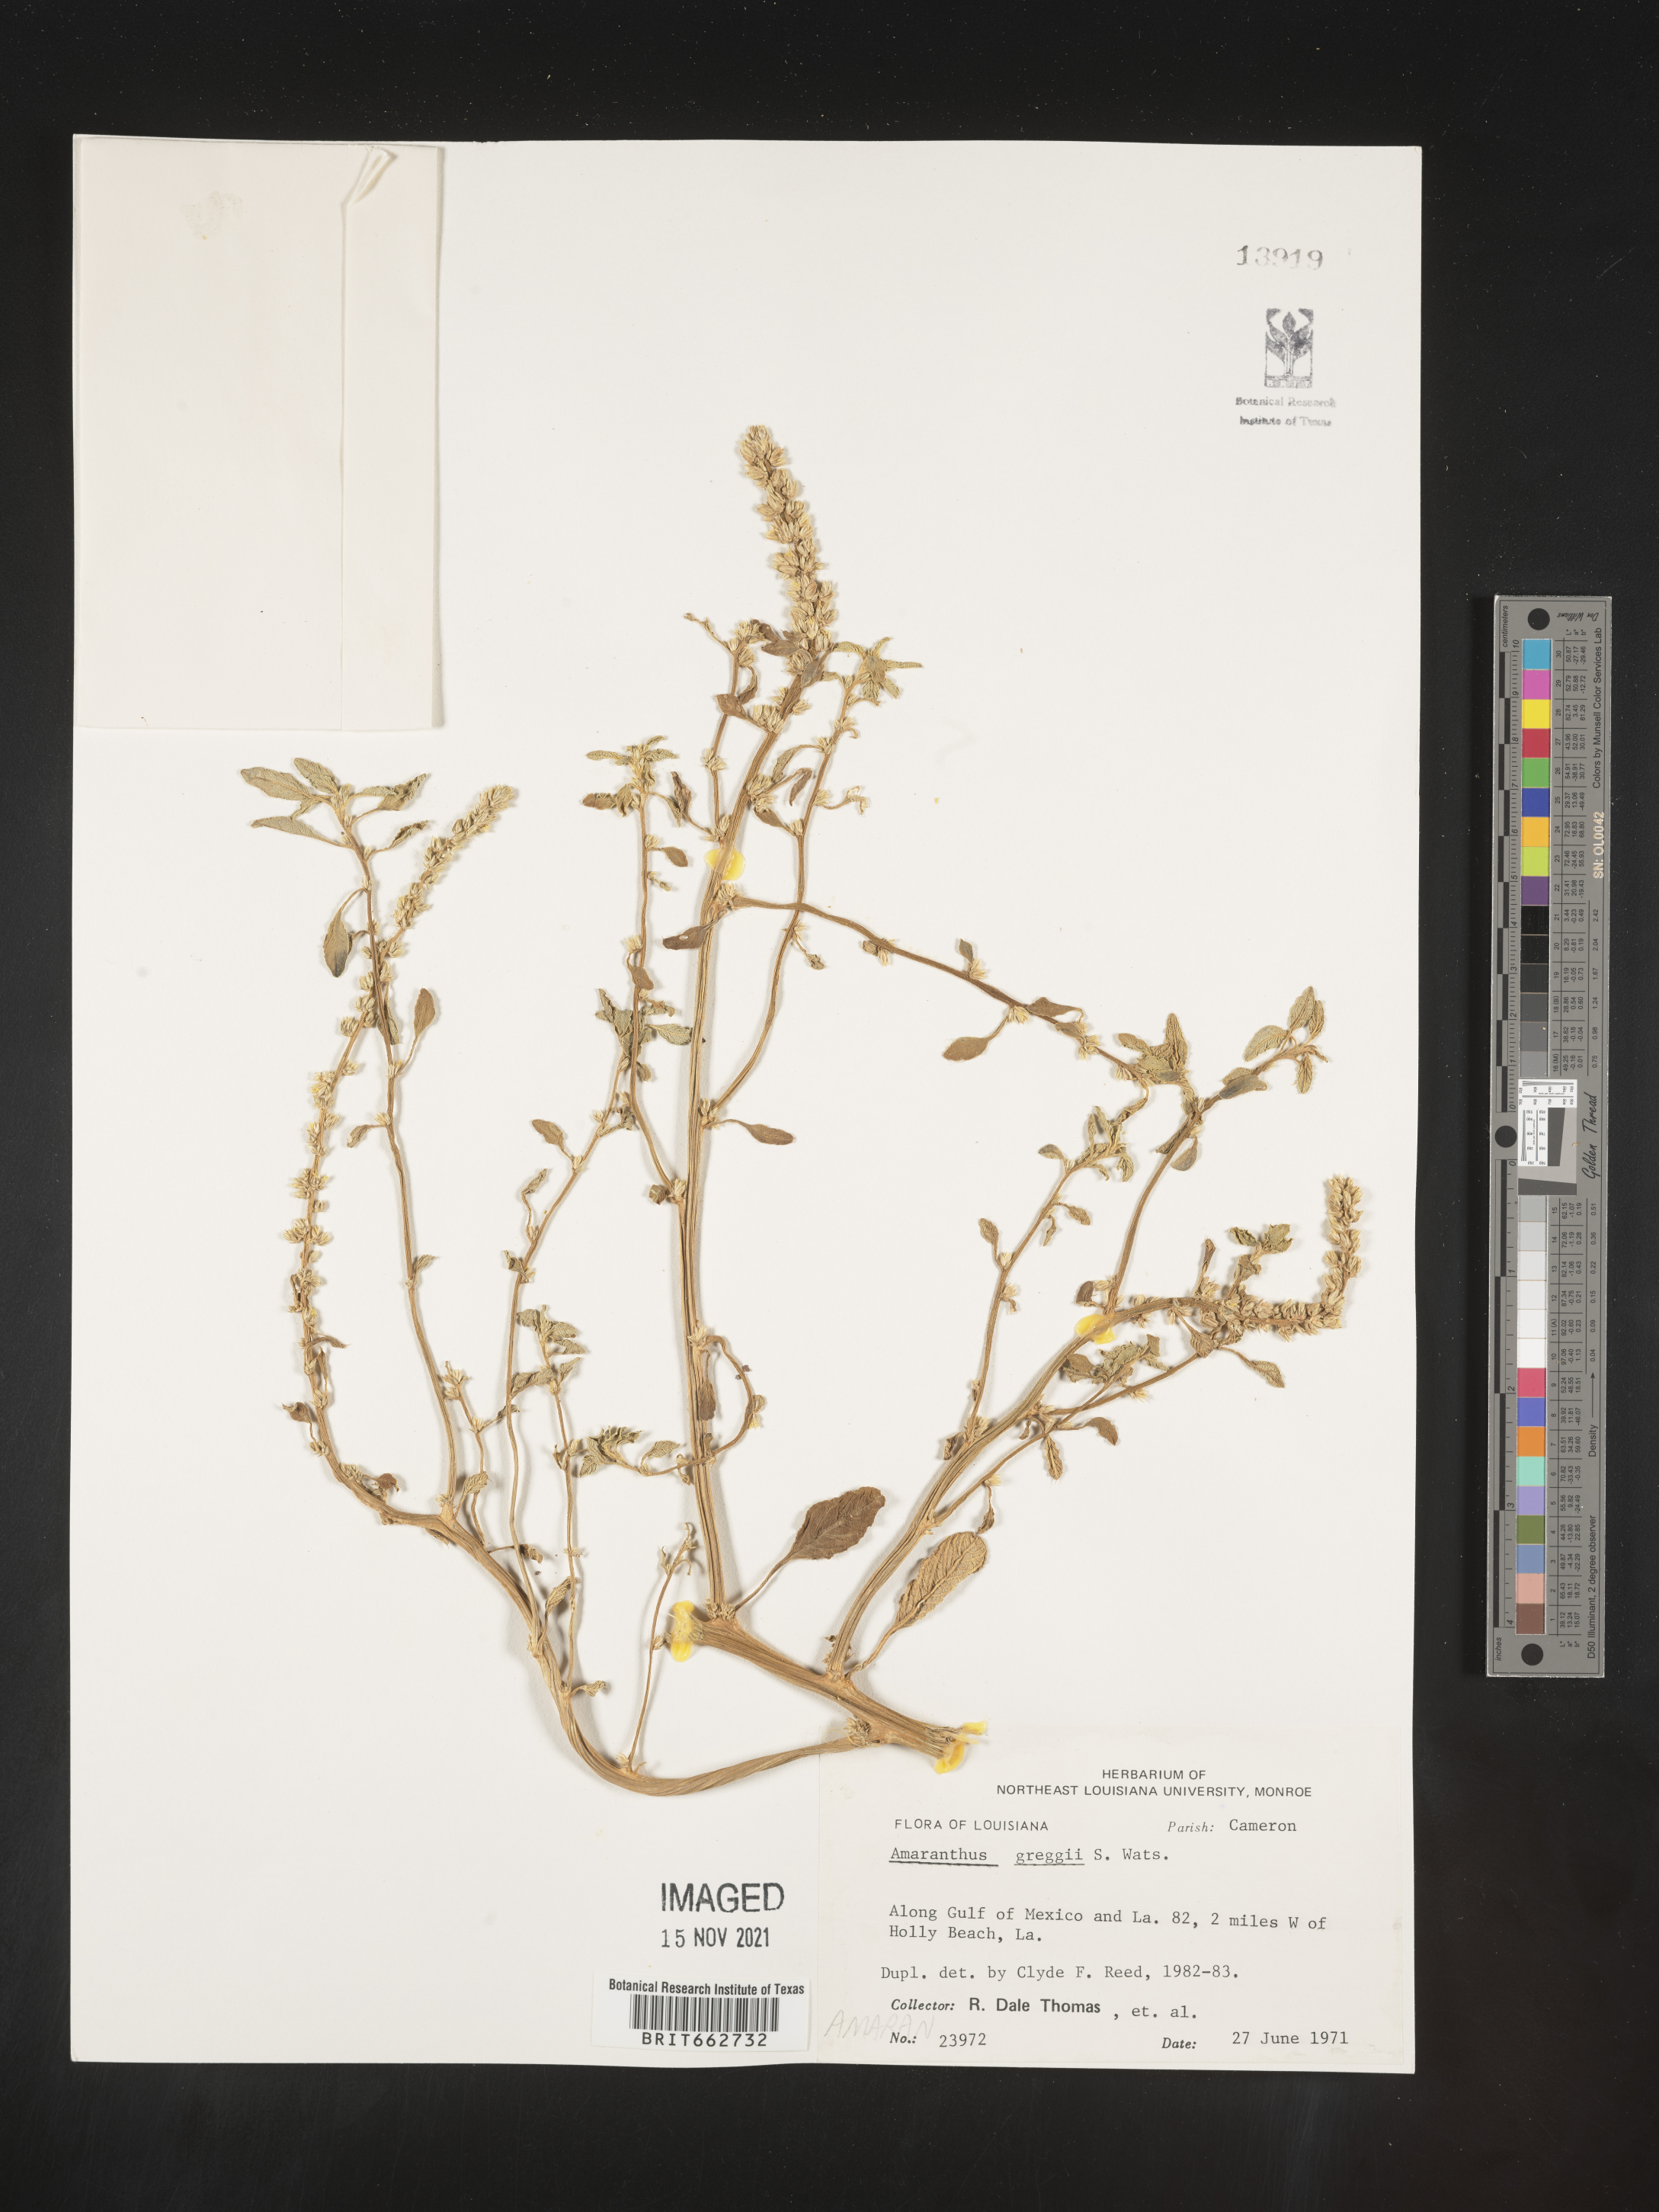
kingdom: Plantae
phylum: Tracheophyta
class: Magnoliopsida
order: Caryophyllales
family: Amaranthaceae
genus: Amaranthus
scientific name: Amaranthus
